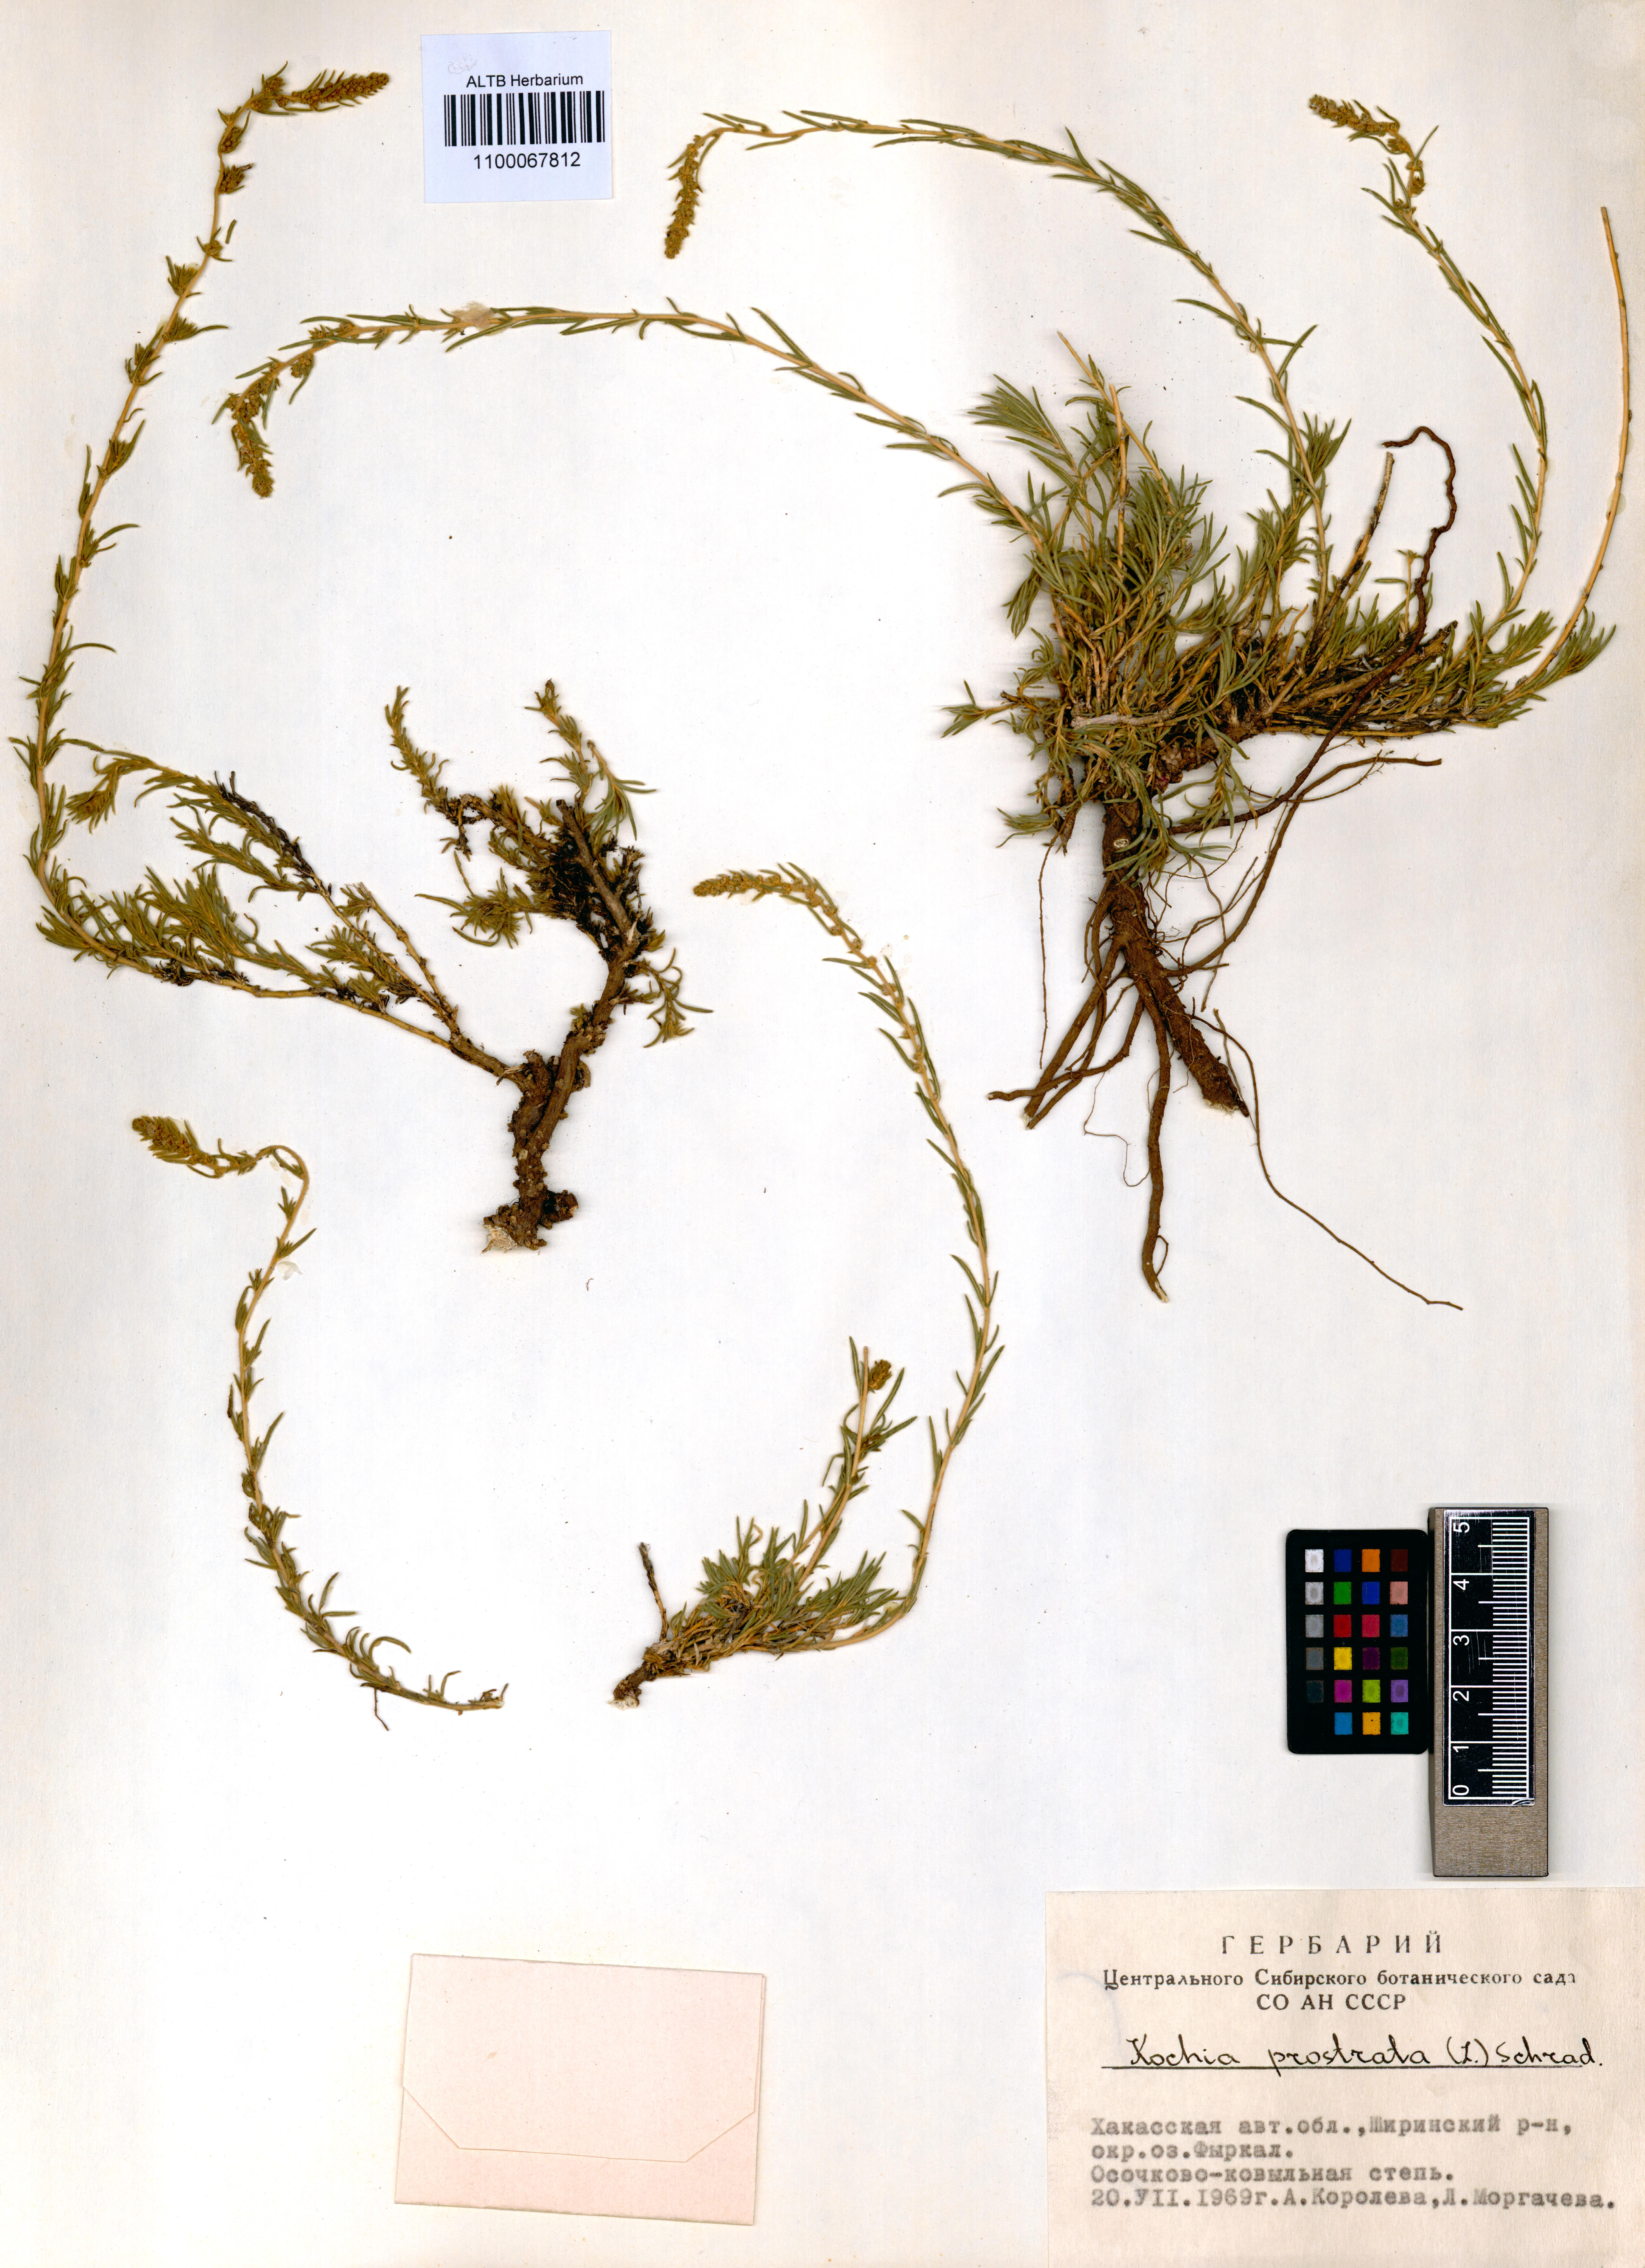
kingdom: Plantae
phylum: Tracheophyta
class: Magnoliopsida
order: Caryophyllales
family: Amaranthaceae
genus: Bassia
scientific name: Bassia prostrata
